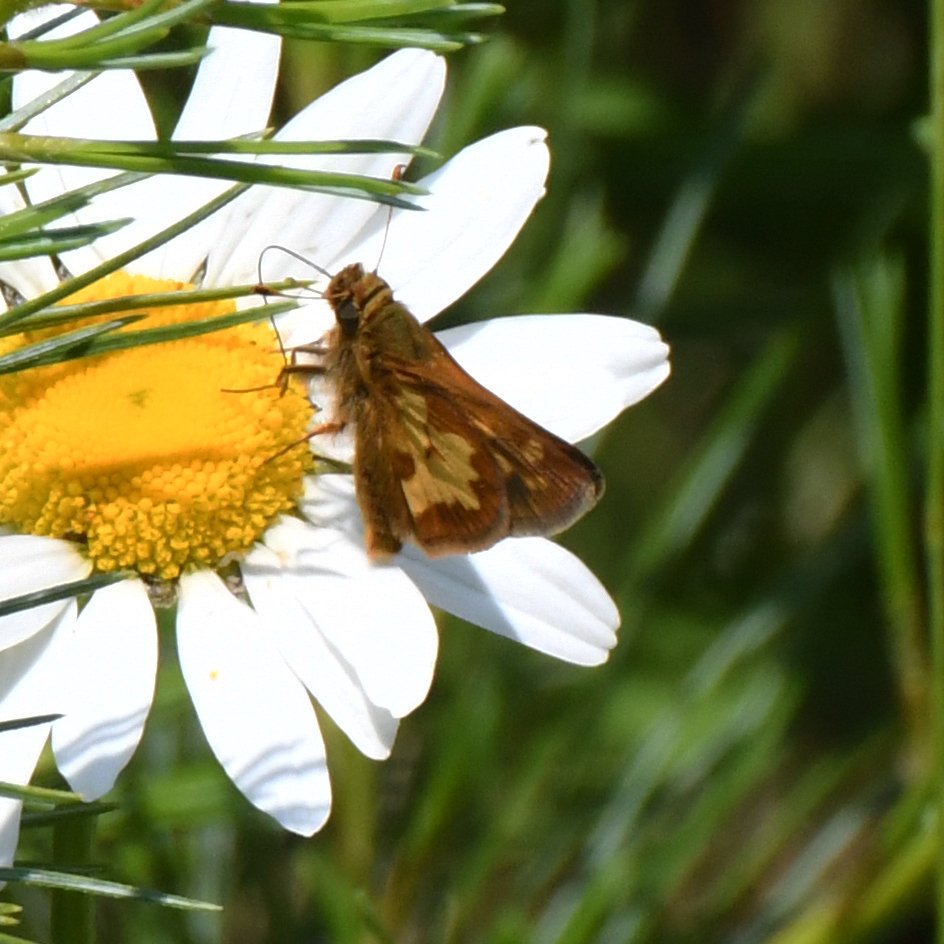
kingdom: Animalia
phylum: Arthropoda
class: Insecta
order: Lepidoptera
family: Hesperiidae
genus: Polites
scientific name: Polites coras
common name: Peck's Skipper
